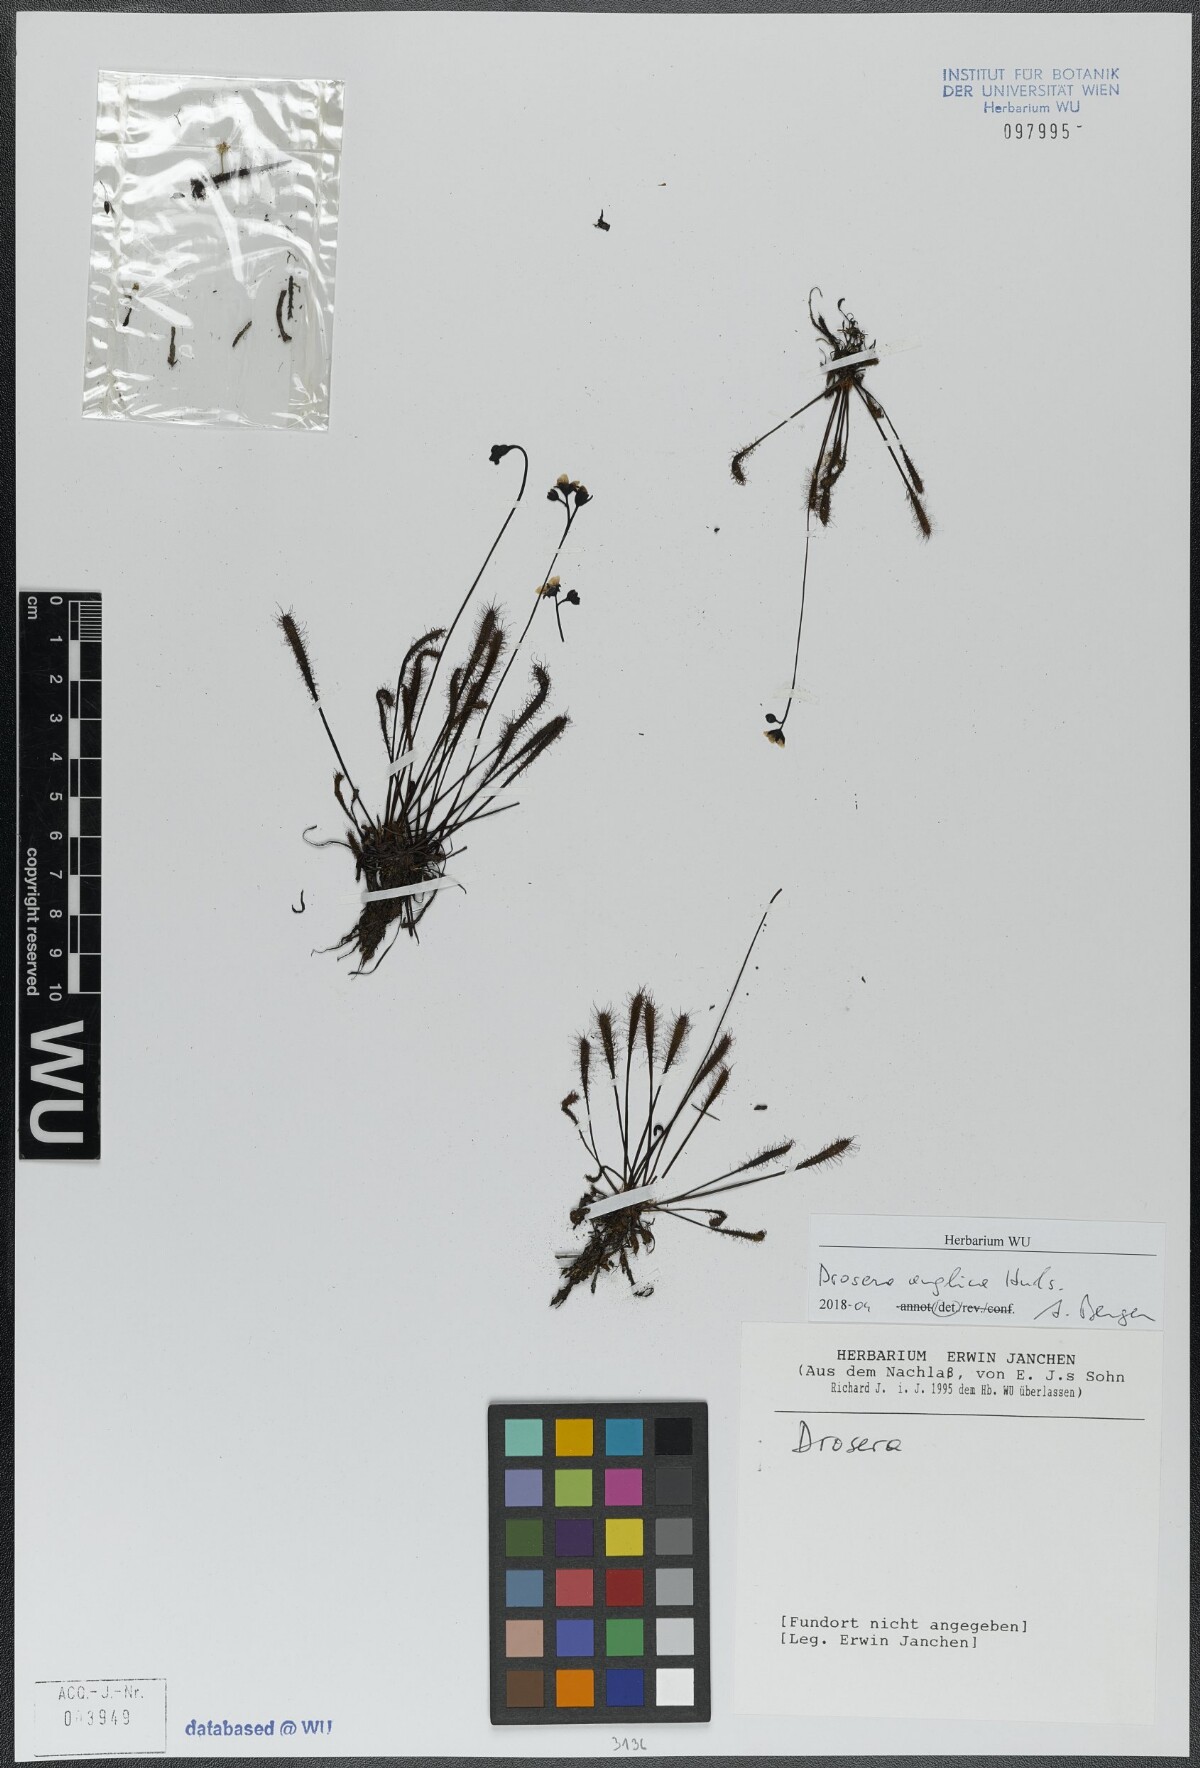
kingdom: Plantae
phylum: Tracheophyta
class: Magnoliopsida
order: Caryophyllales
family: Droseraceae
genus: Drosera
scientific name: Drosera anglica
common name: Great sundew
